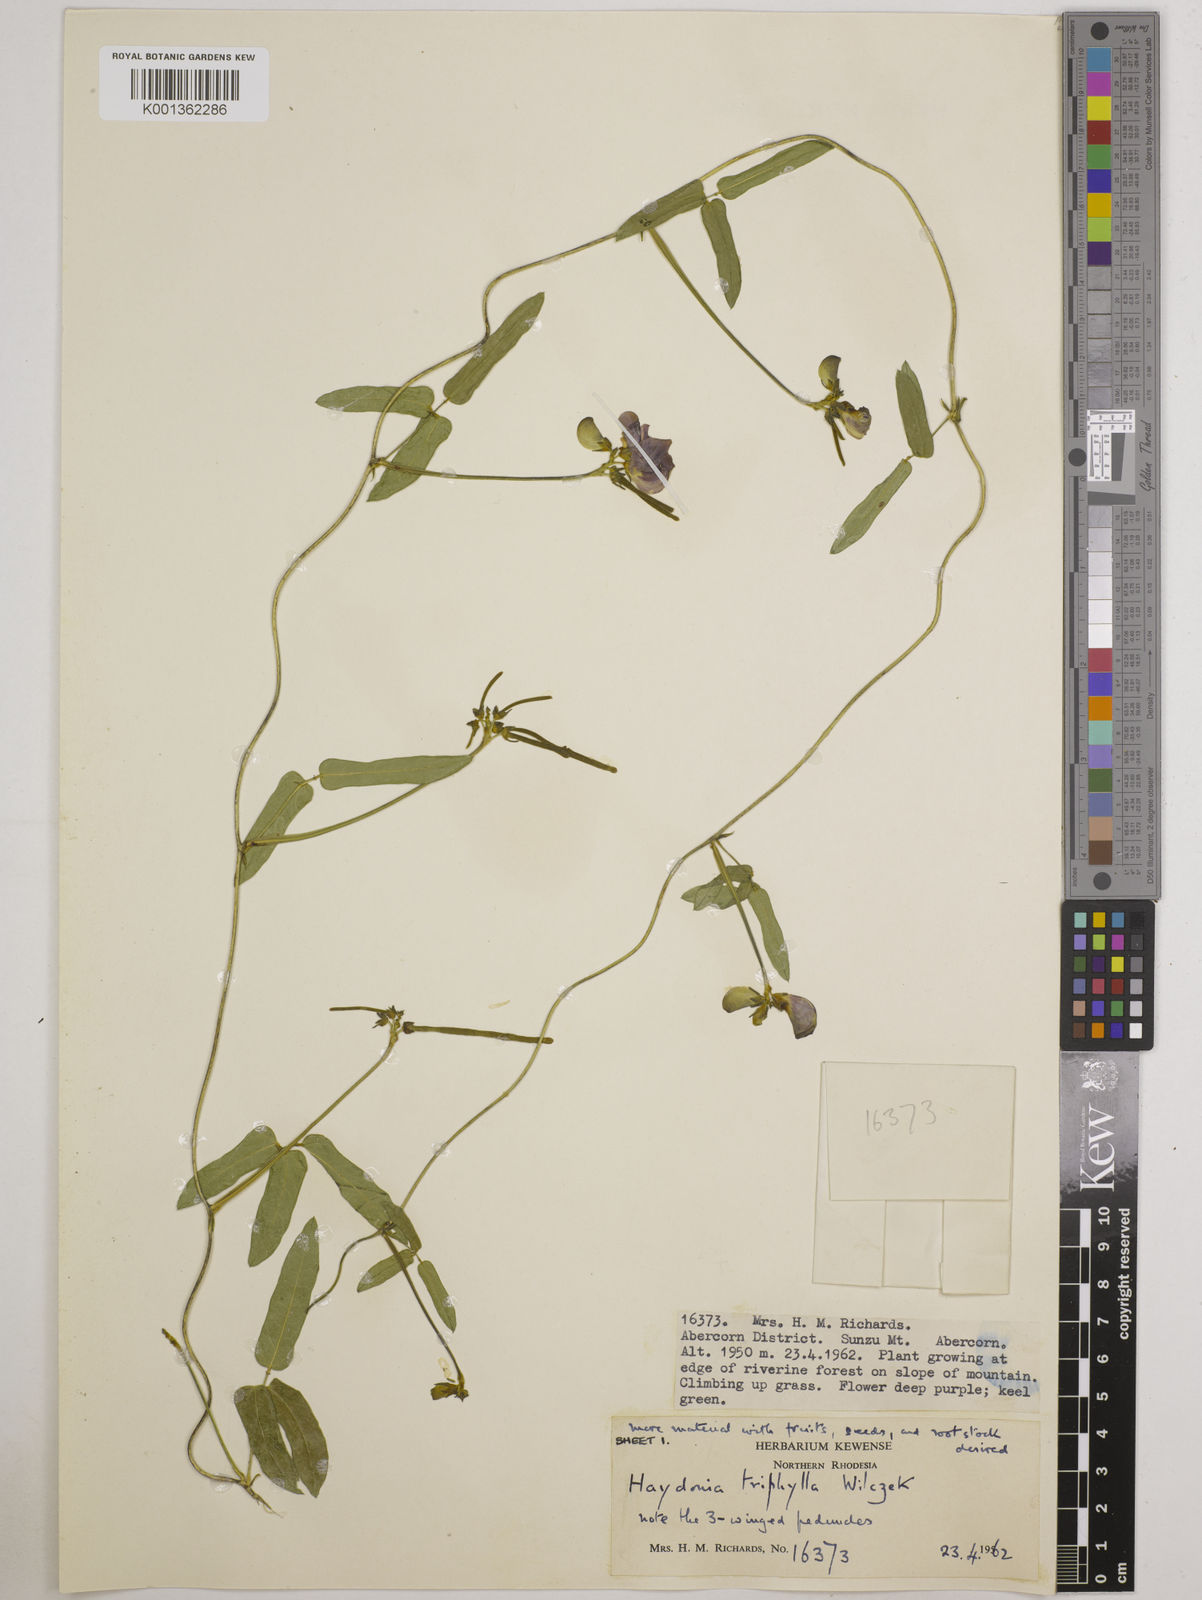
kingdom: Plantae
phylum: Tracheophyta
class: Magnoliopsida
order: Fabales
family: Fabaceae
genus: Vigna
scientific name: Vigna triphylla
